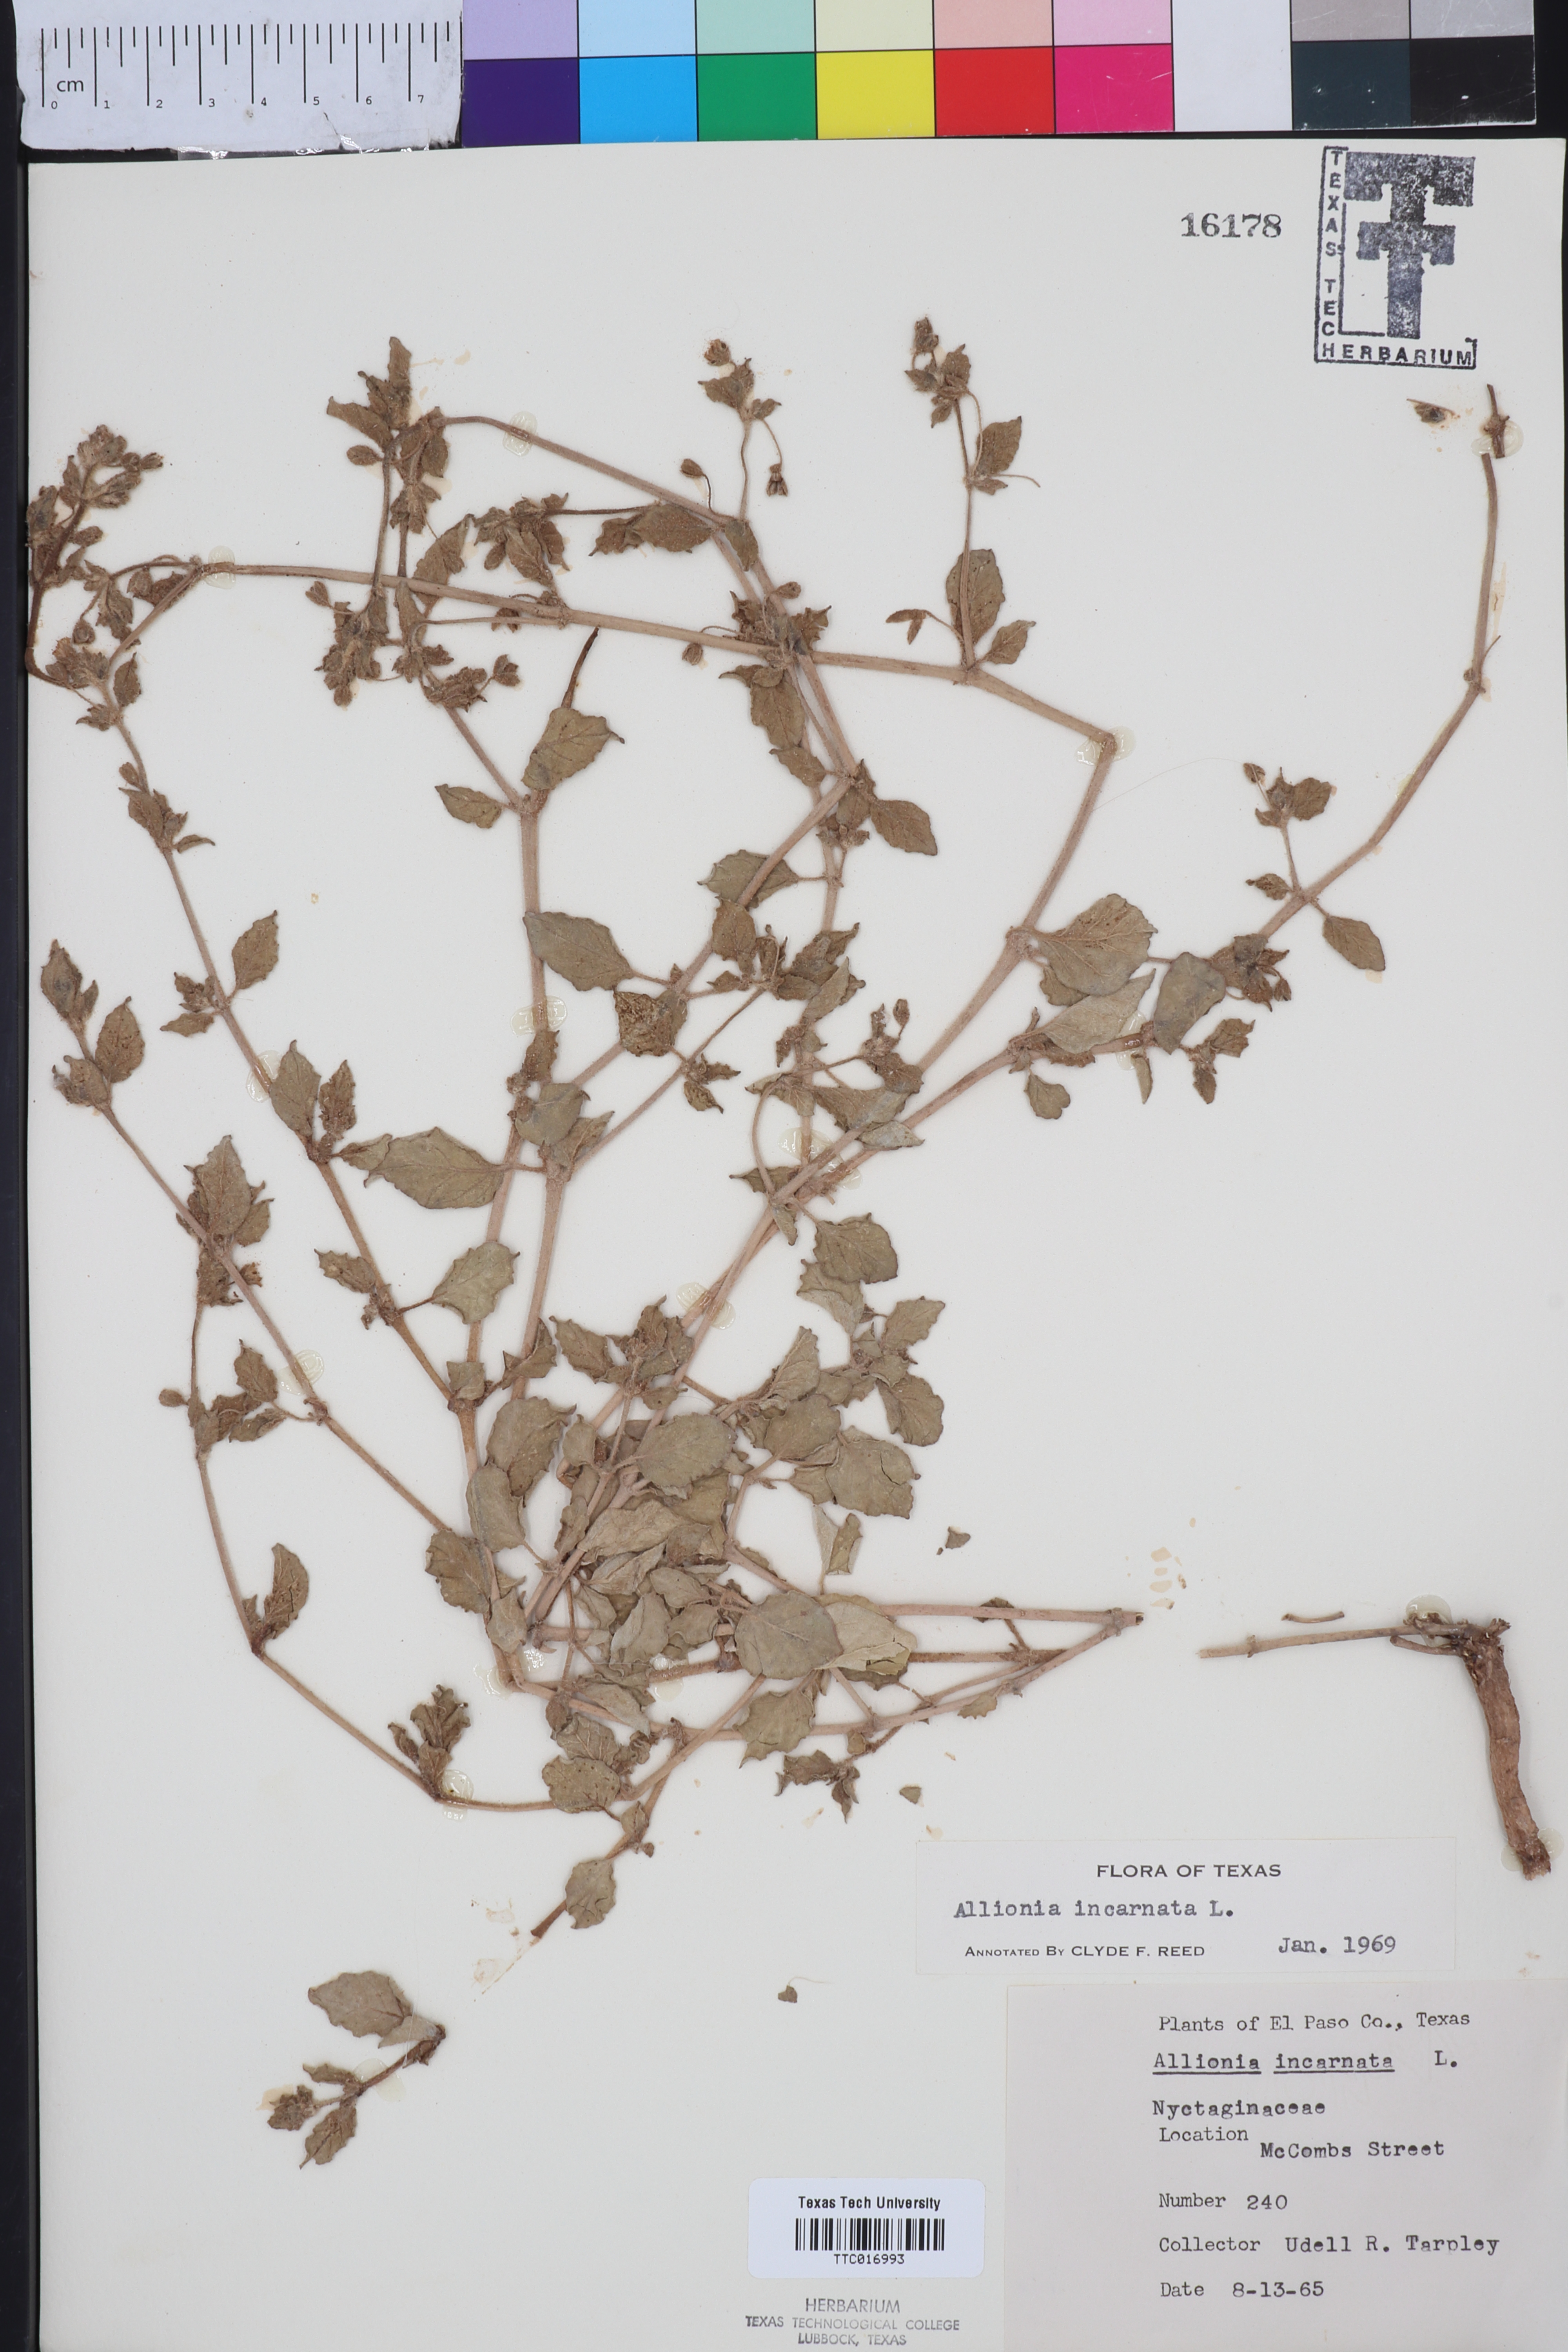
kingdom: Plantae
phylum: Tracheophyta
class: Magnoliopsida
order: Caryophyllales
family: Nyctaginaceae
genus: Allionia
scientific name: Allionia incarnata
